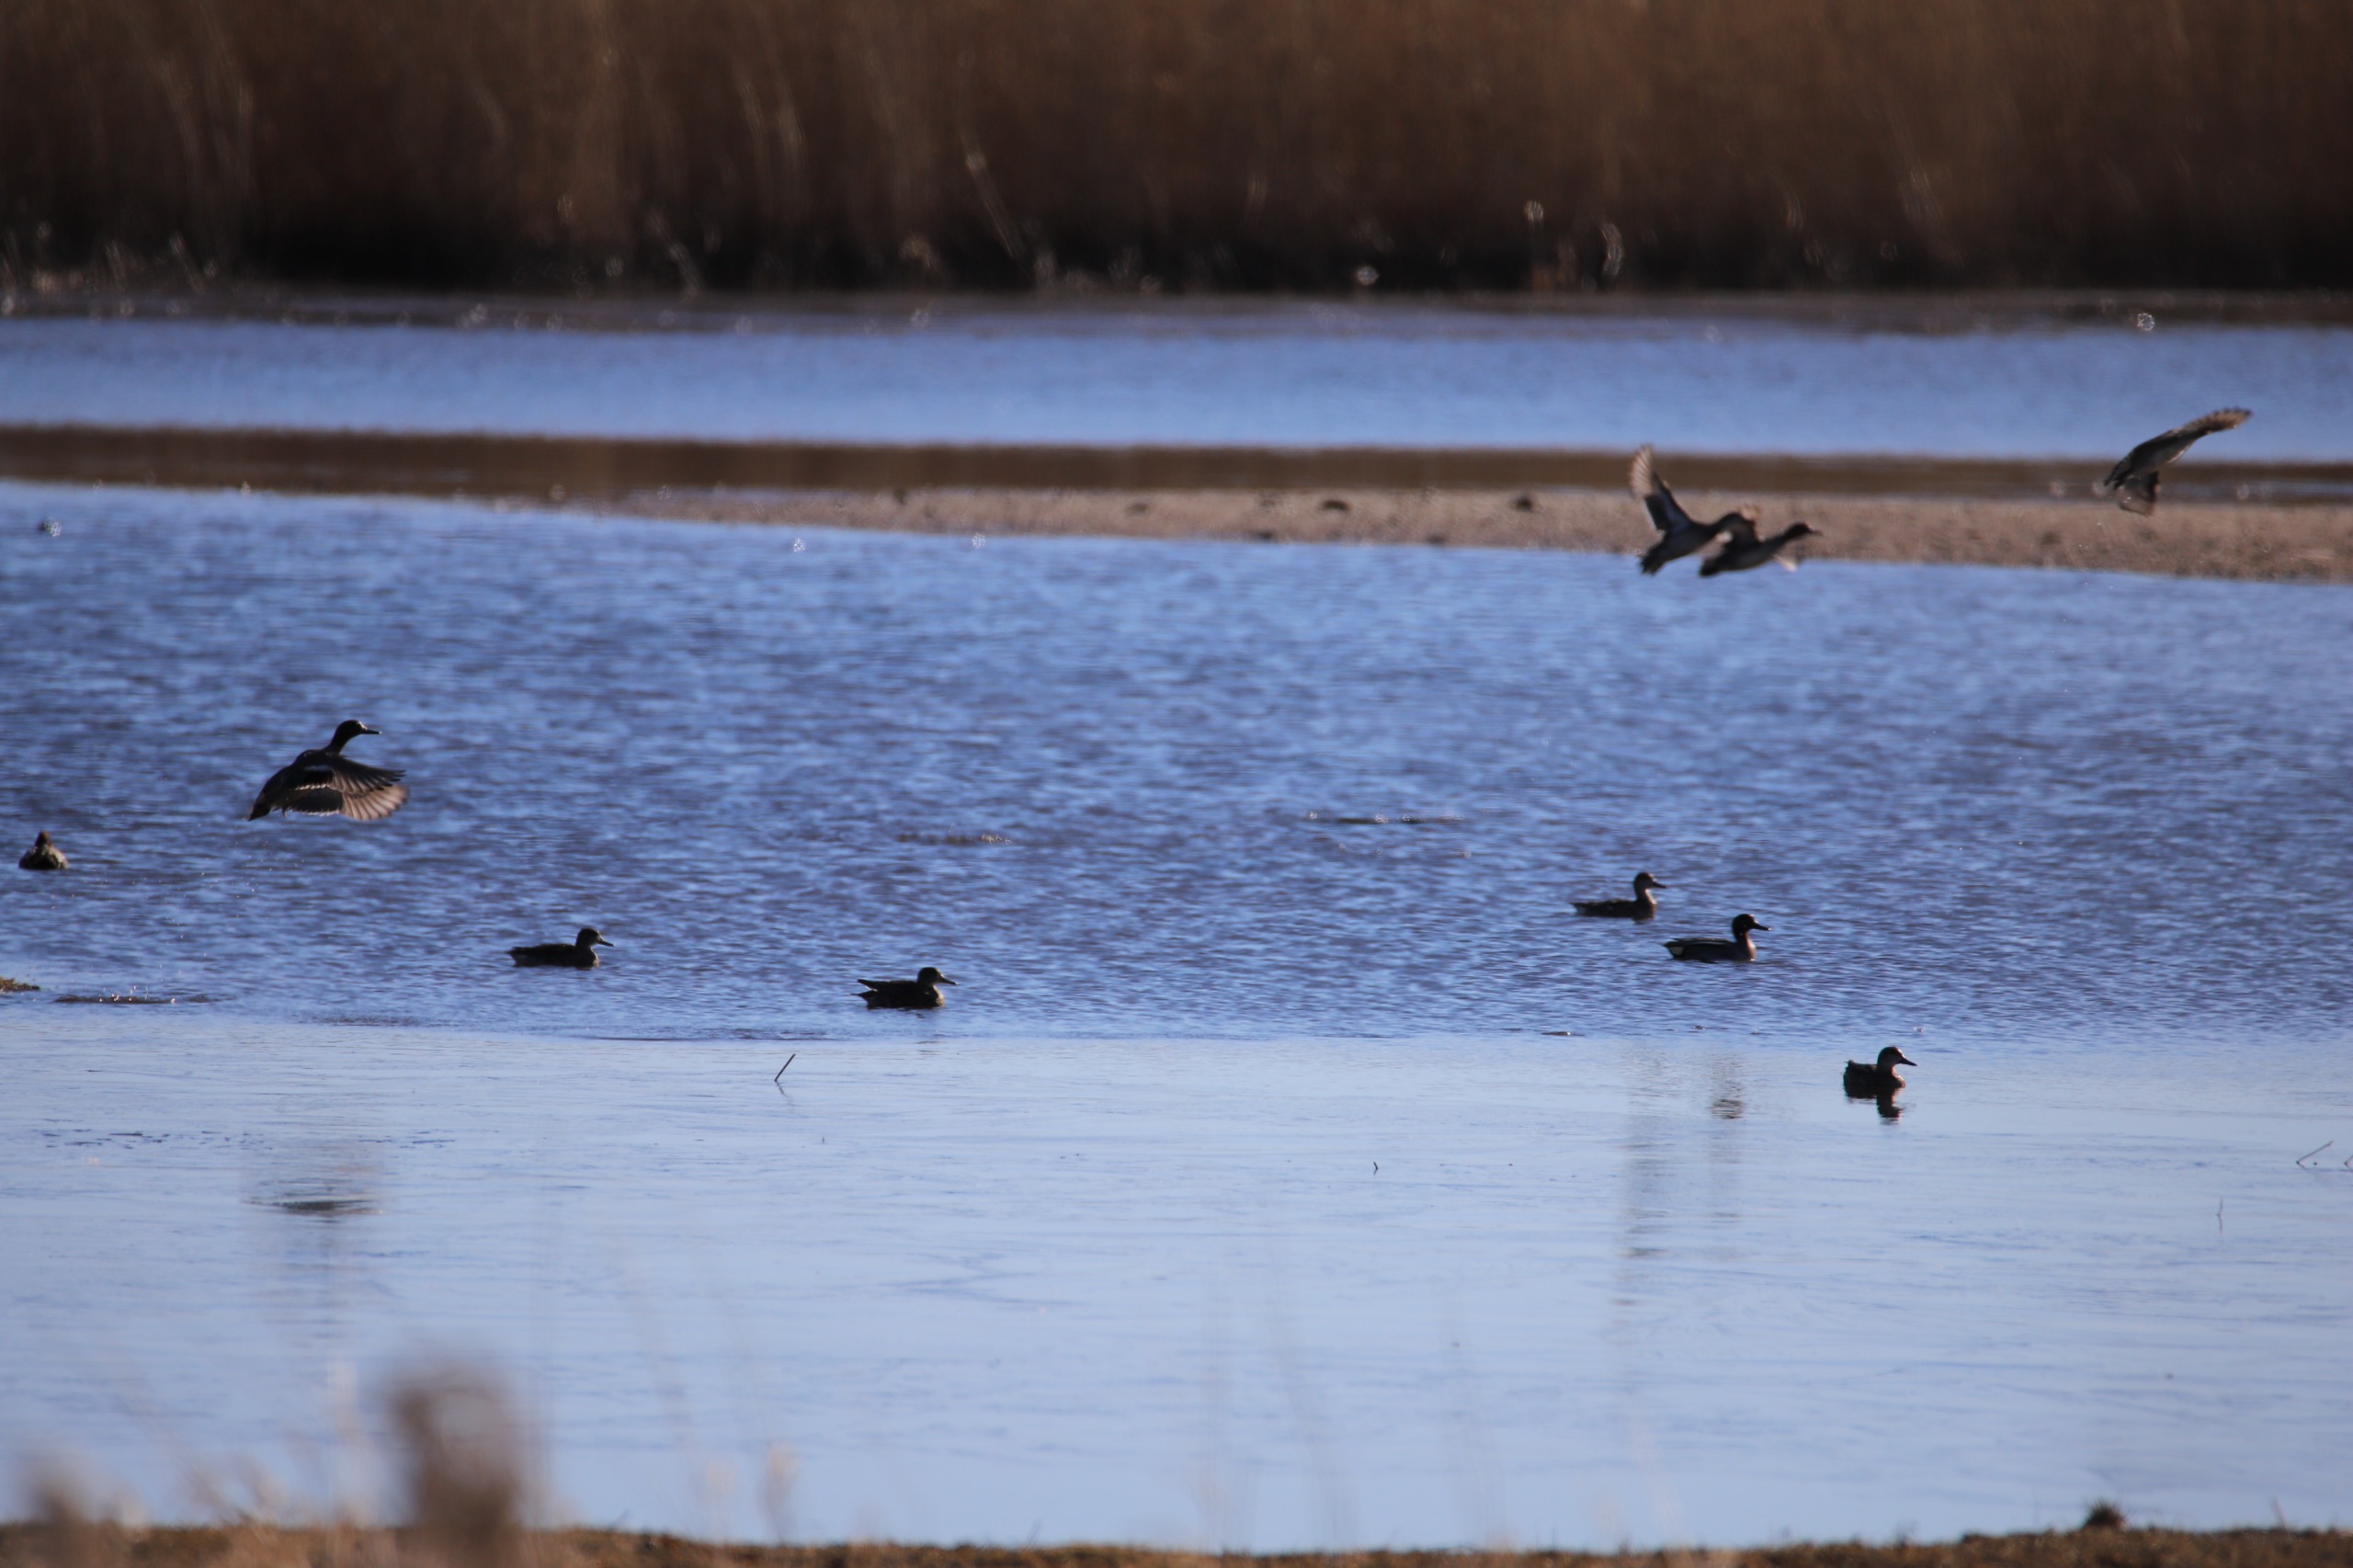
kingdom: Animalia
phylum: Chordata
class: Aves
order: Anseriformes
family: Anatidae
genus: Anas
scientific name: Anas crecca
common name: Krikand
